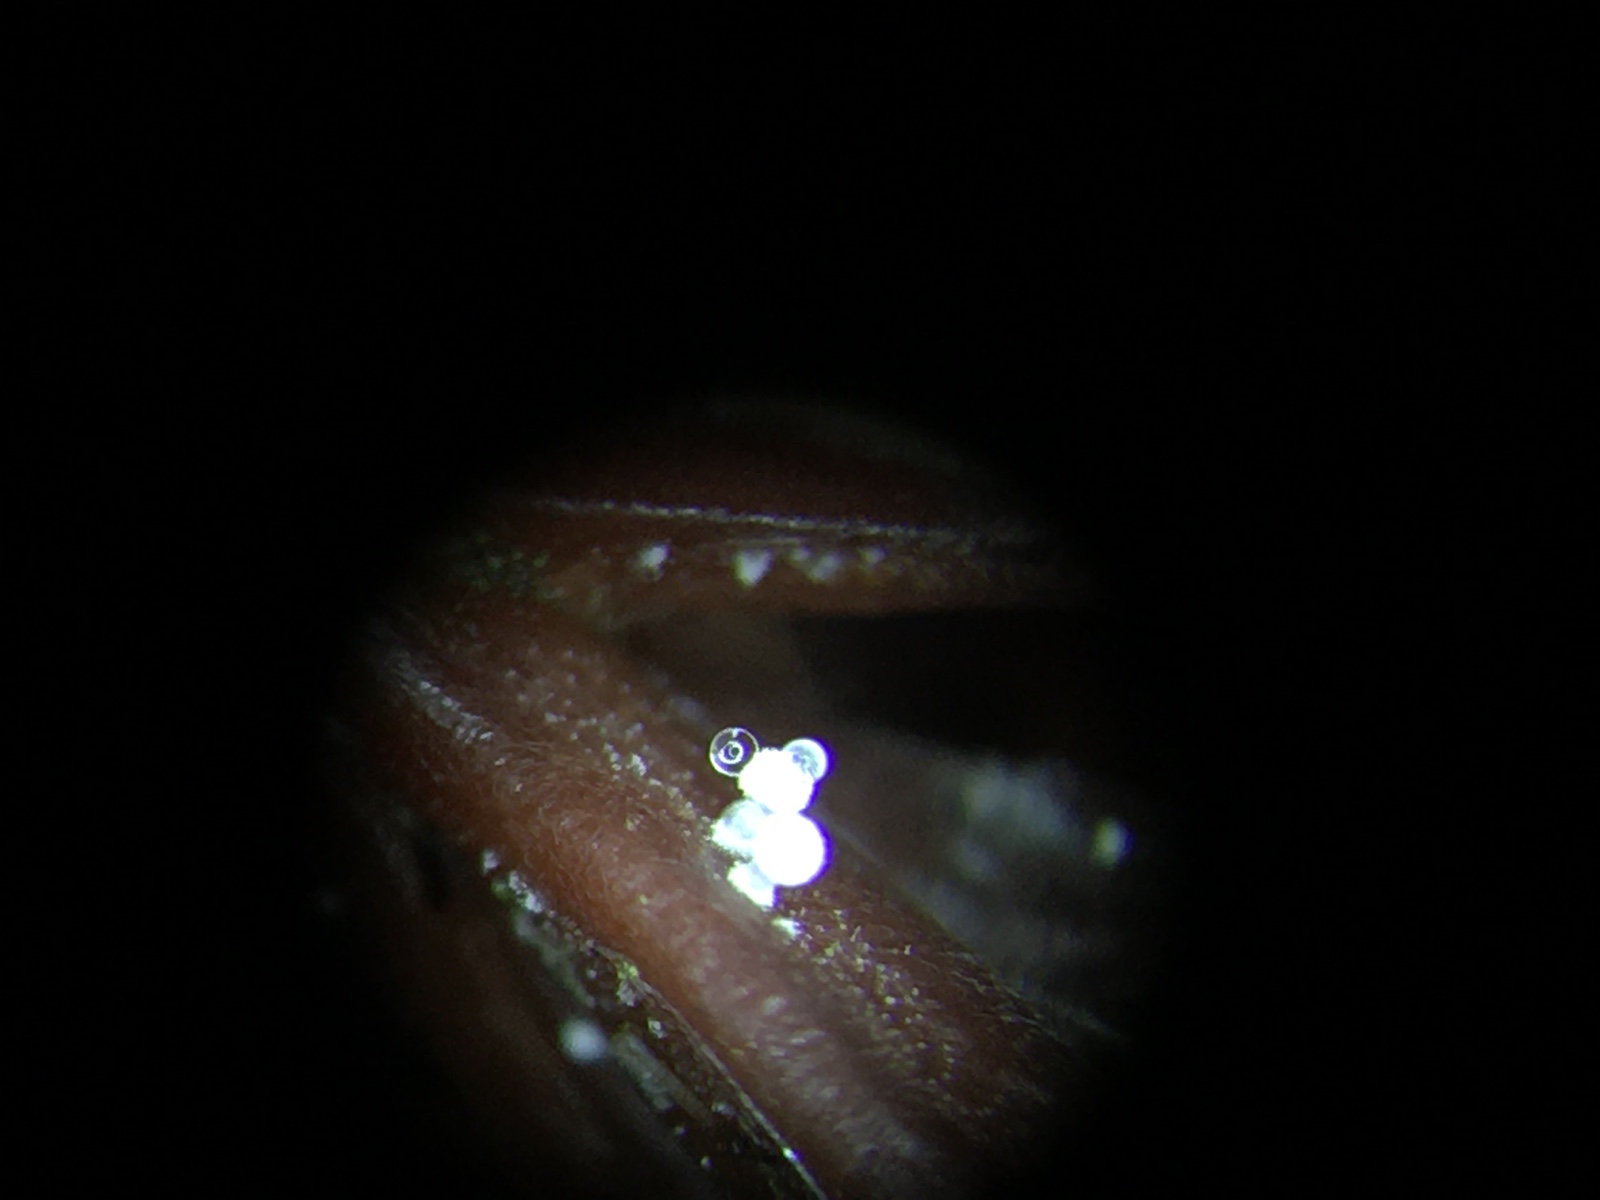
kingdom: Fungi
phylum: Basidiomycota
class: Agaricomycetes
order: Agaricales
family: Physalacriaceae
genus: Physalacria
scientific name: Physalacria cryptomeriae
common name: japangran-boldkølle
